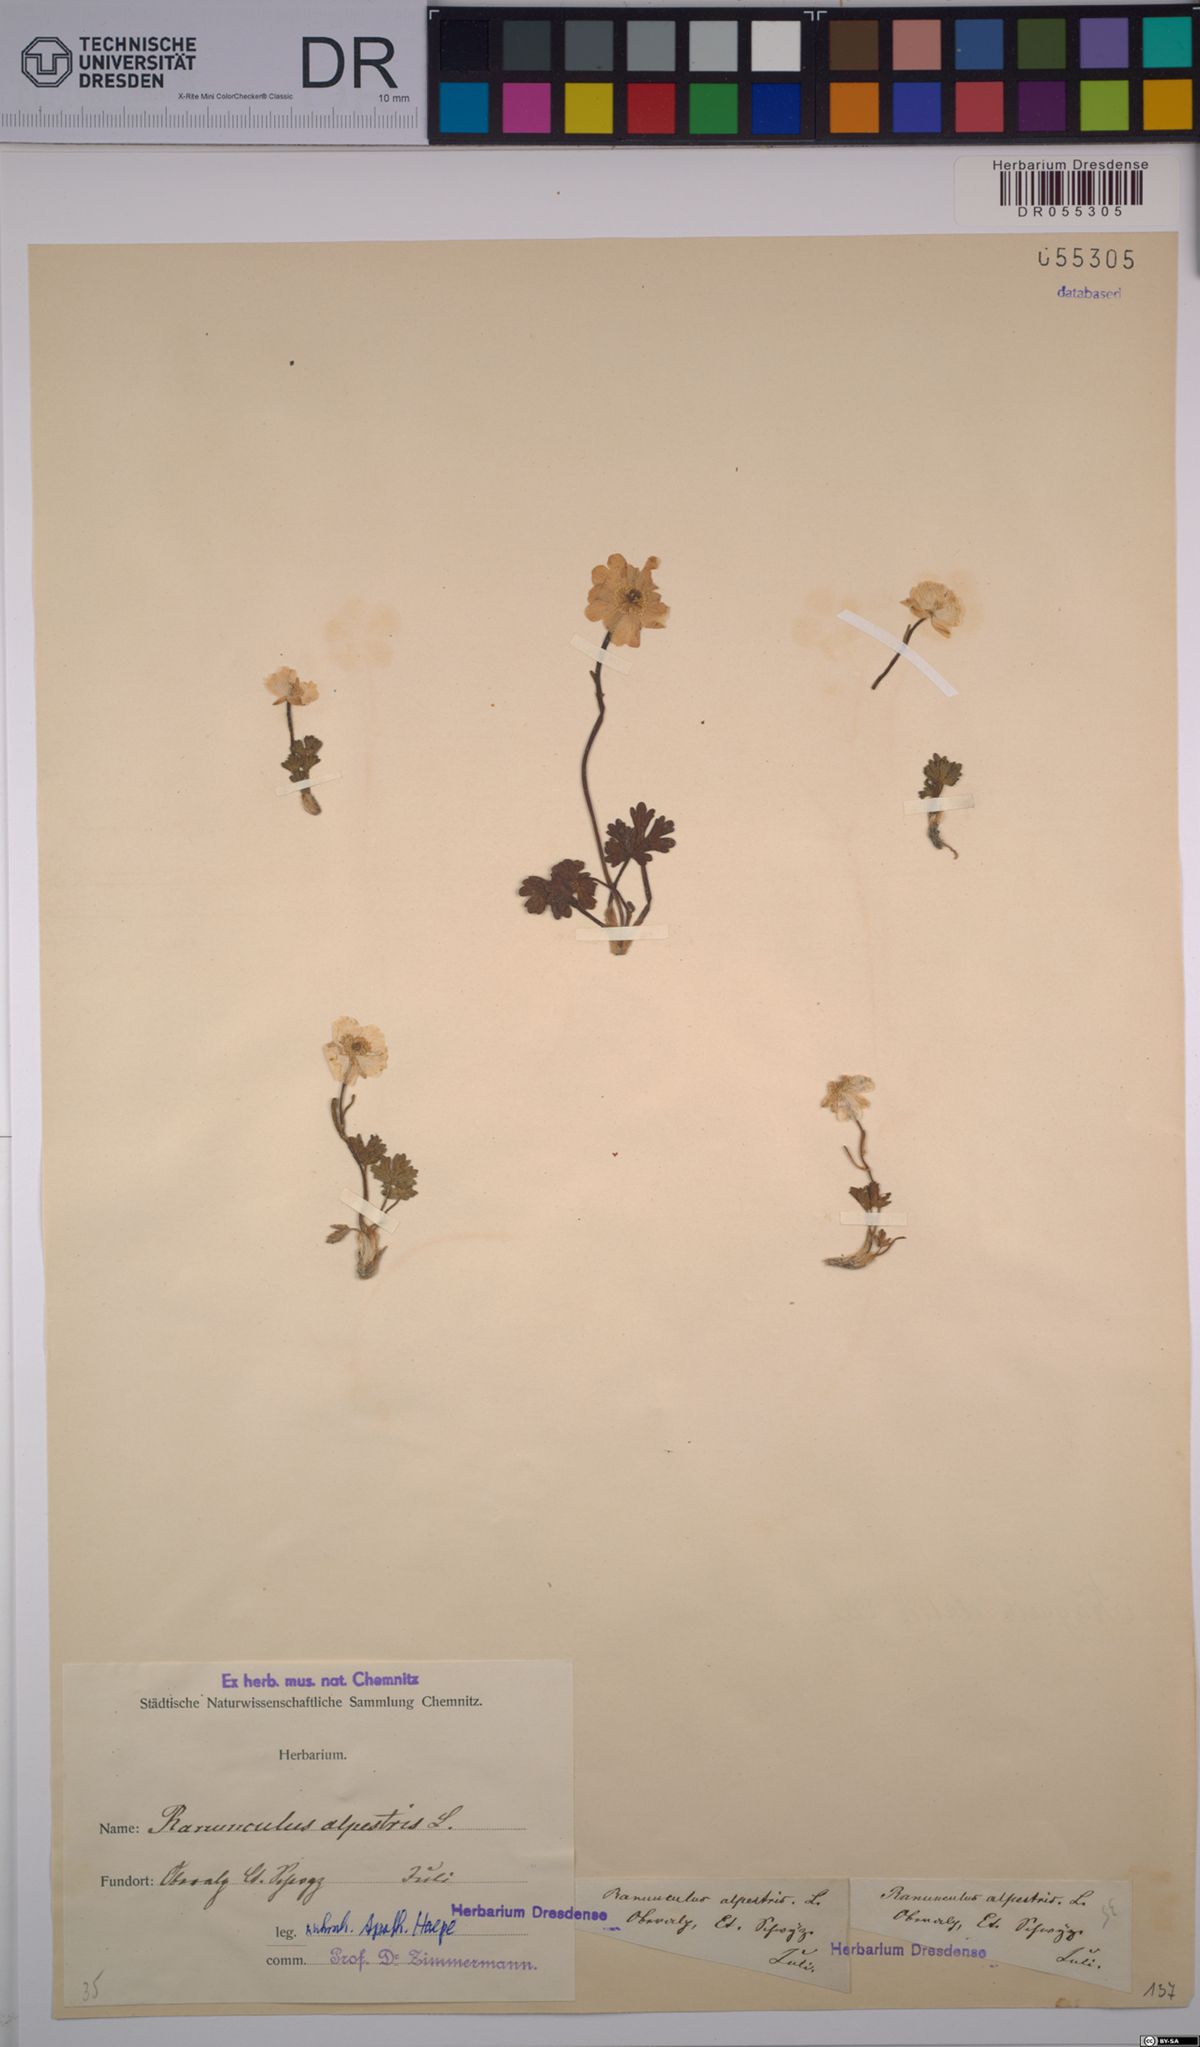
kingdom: Plantae
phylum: Tracheophyta
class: Magnoliopsida
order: Ranunculales
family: Ranunculaceae
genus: Ranunculus
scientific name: Ranunculus alpestris
